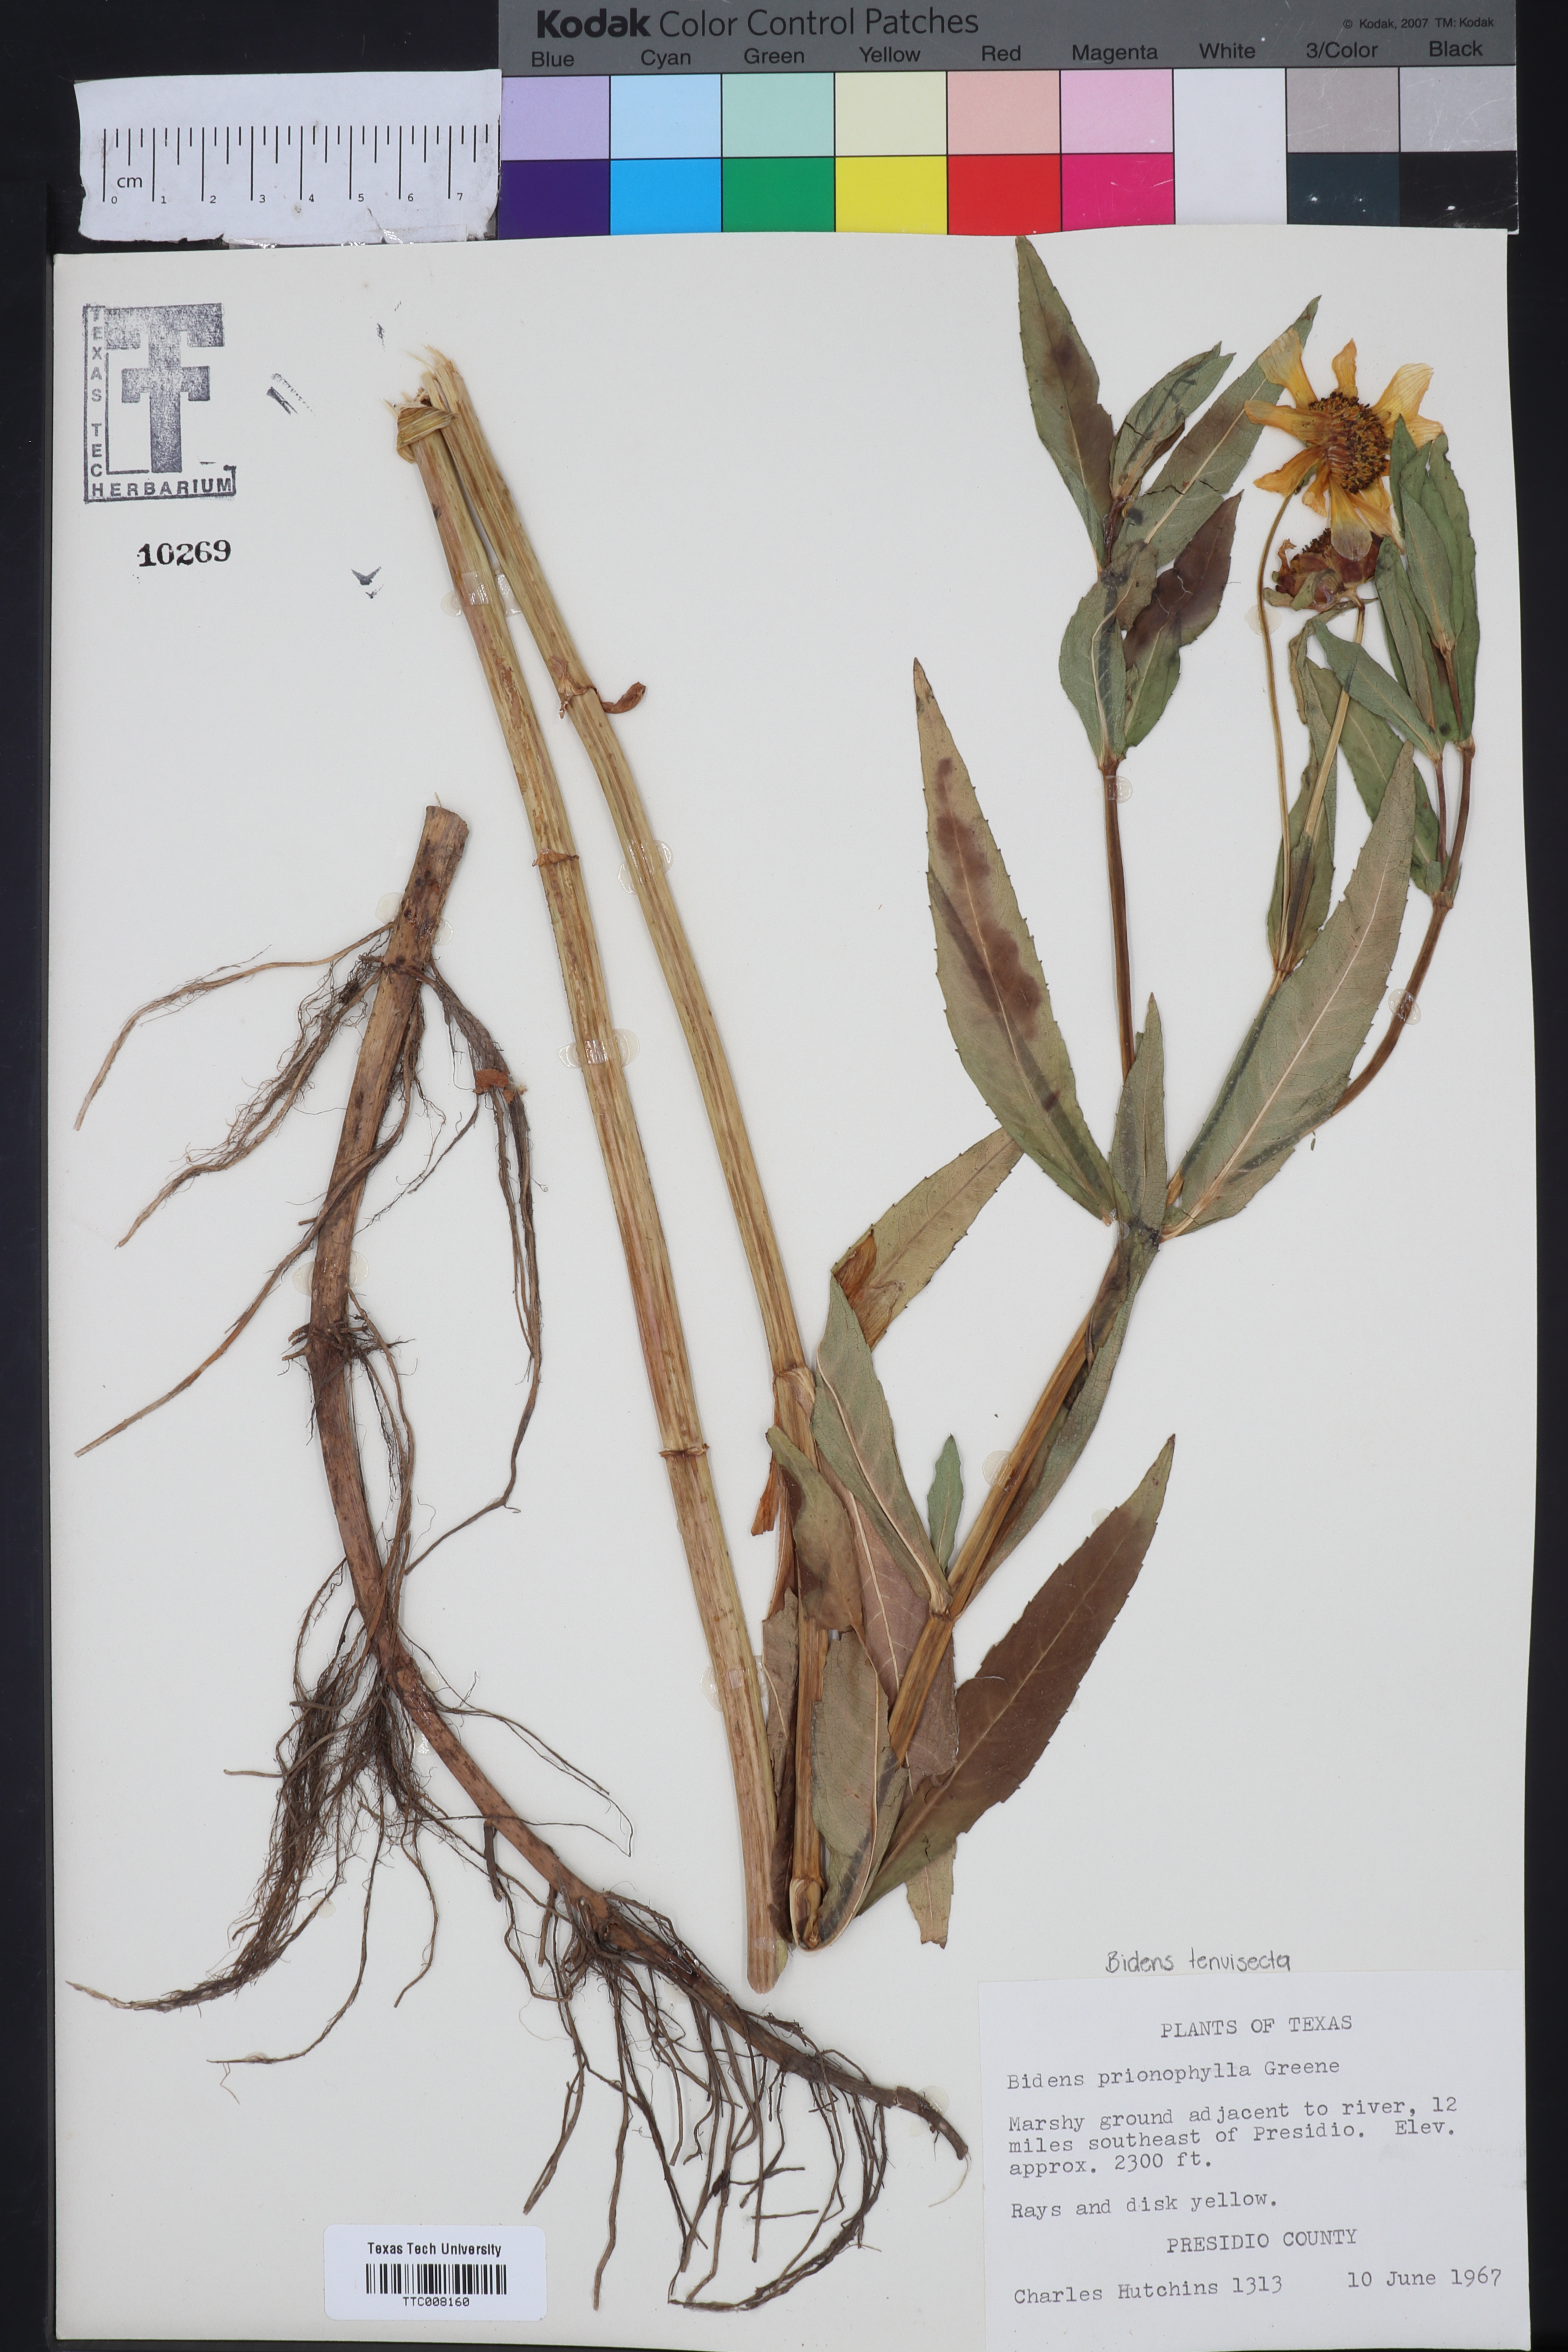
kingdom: Plantae
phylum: Tracheophyta
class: Magnoliopsida
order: Asterales
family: Asteraceae
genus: Bidens
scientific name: Bidens cernua
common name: Nodding bur-marigold
